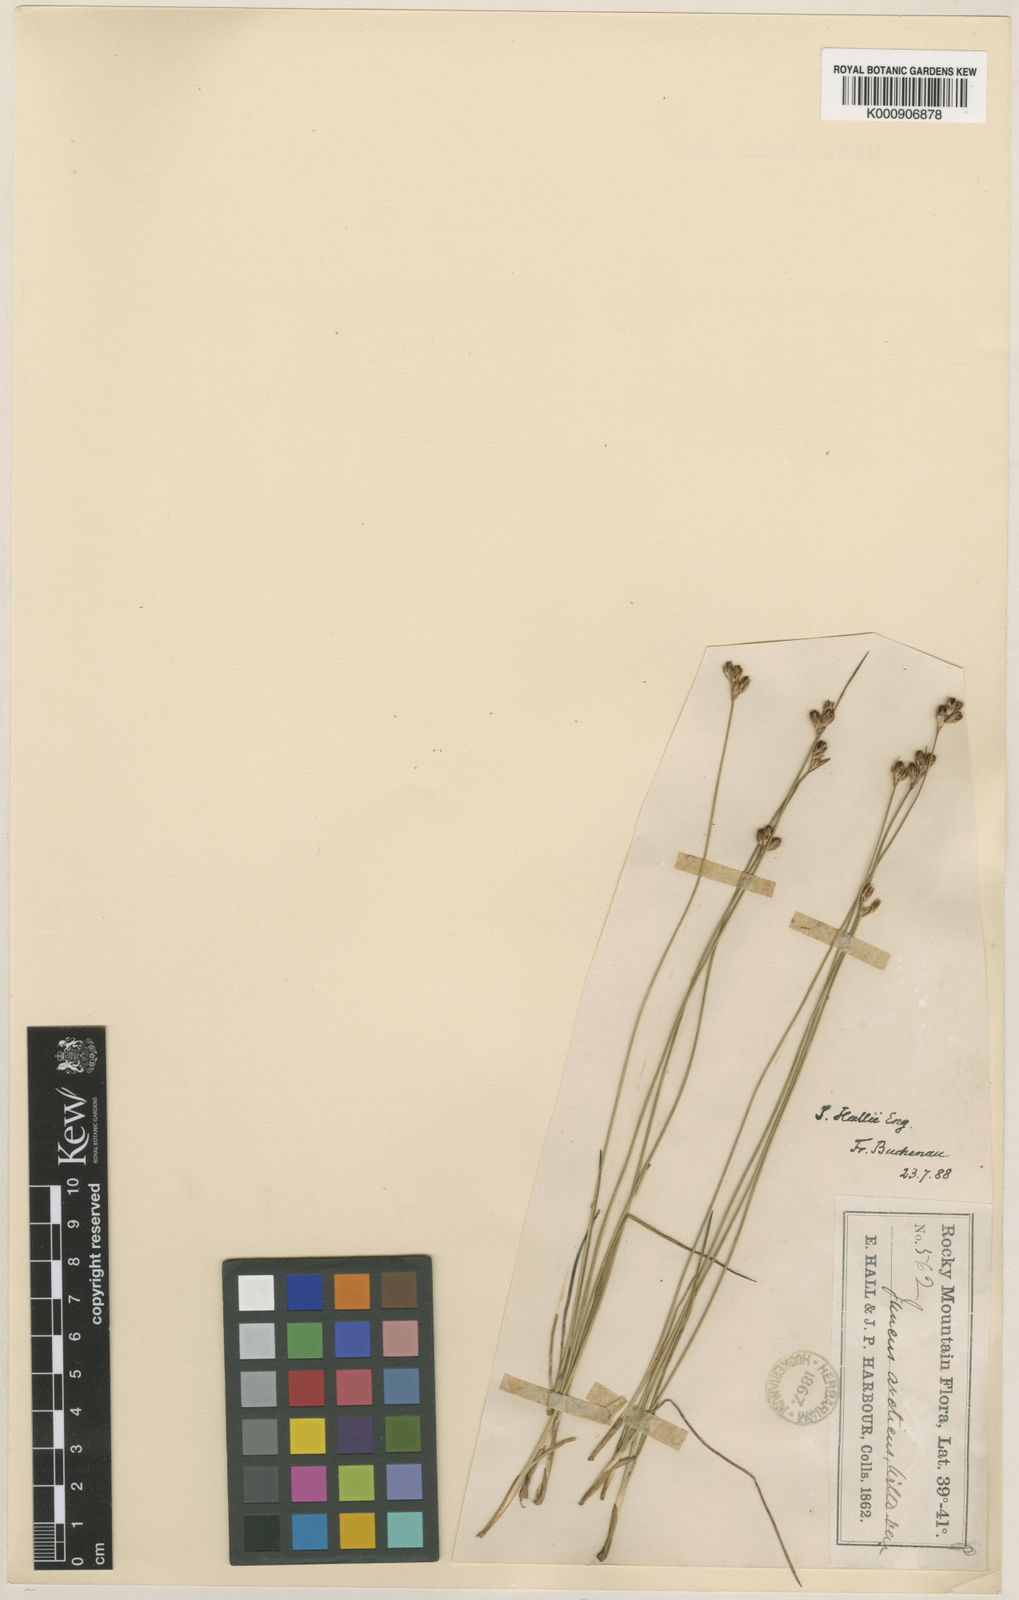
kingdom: Plantae
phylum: Tracheophyta
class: Liliopsida
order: Poales
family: Juncaceae
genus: Juncus
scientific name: Juncus hallii
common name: Hall's rush
